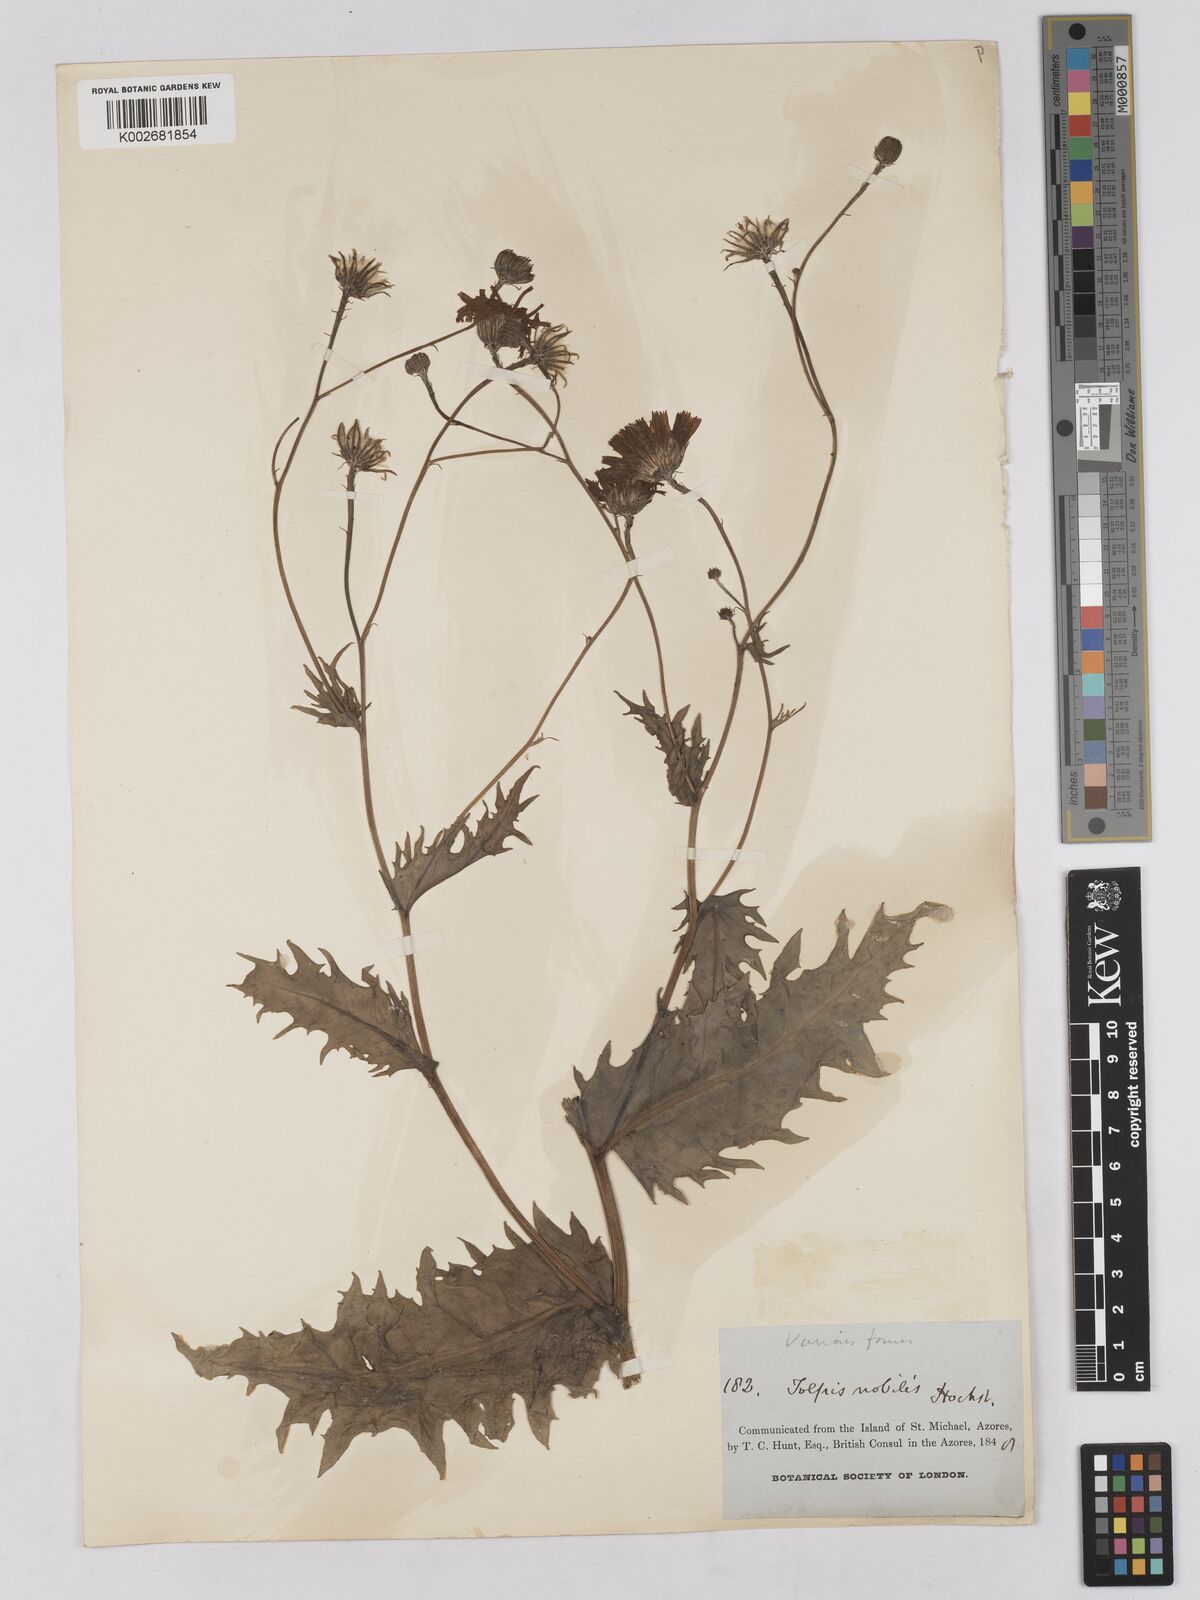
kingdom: Plantae
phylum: Tracheophyta
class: Magnoliopsida
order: Asterales
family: Asteraceae
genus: Tolpis
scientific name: Tolpis nobilis
